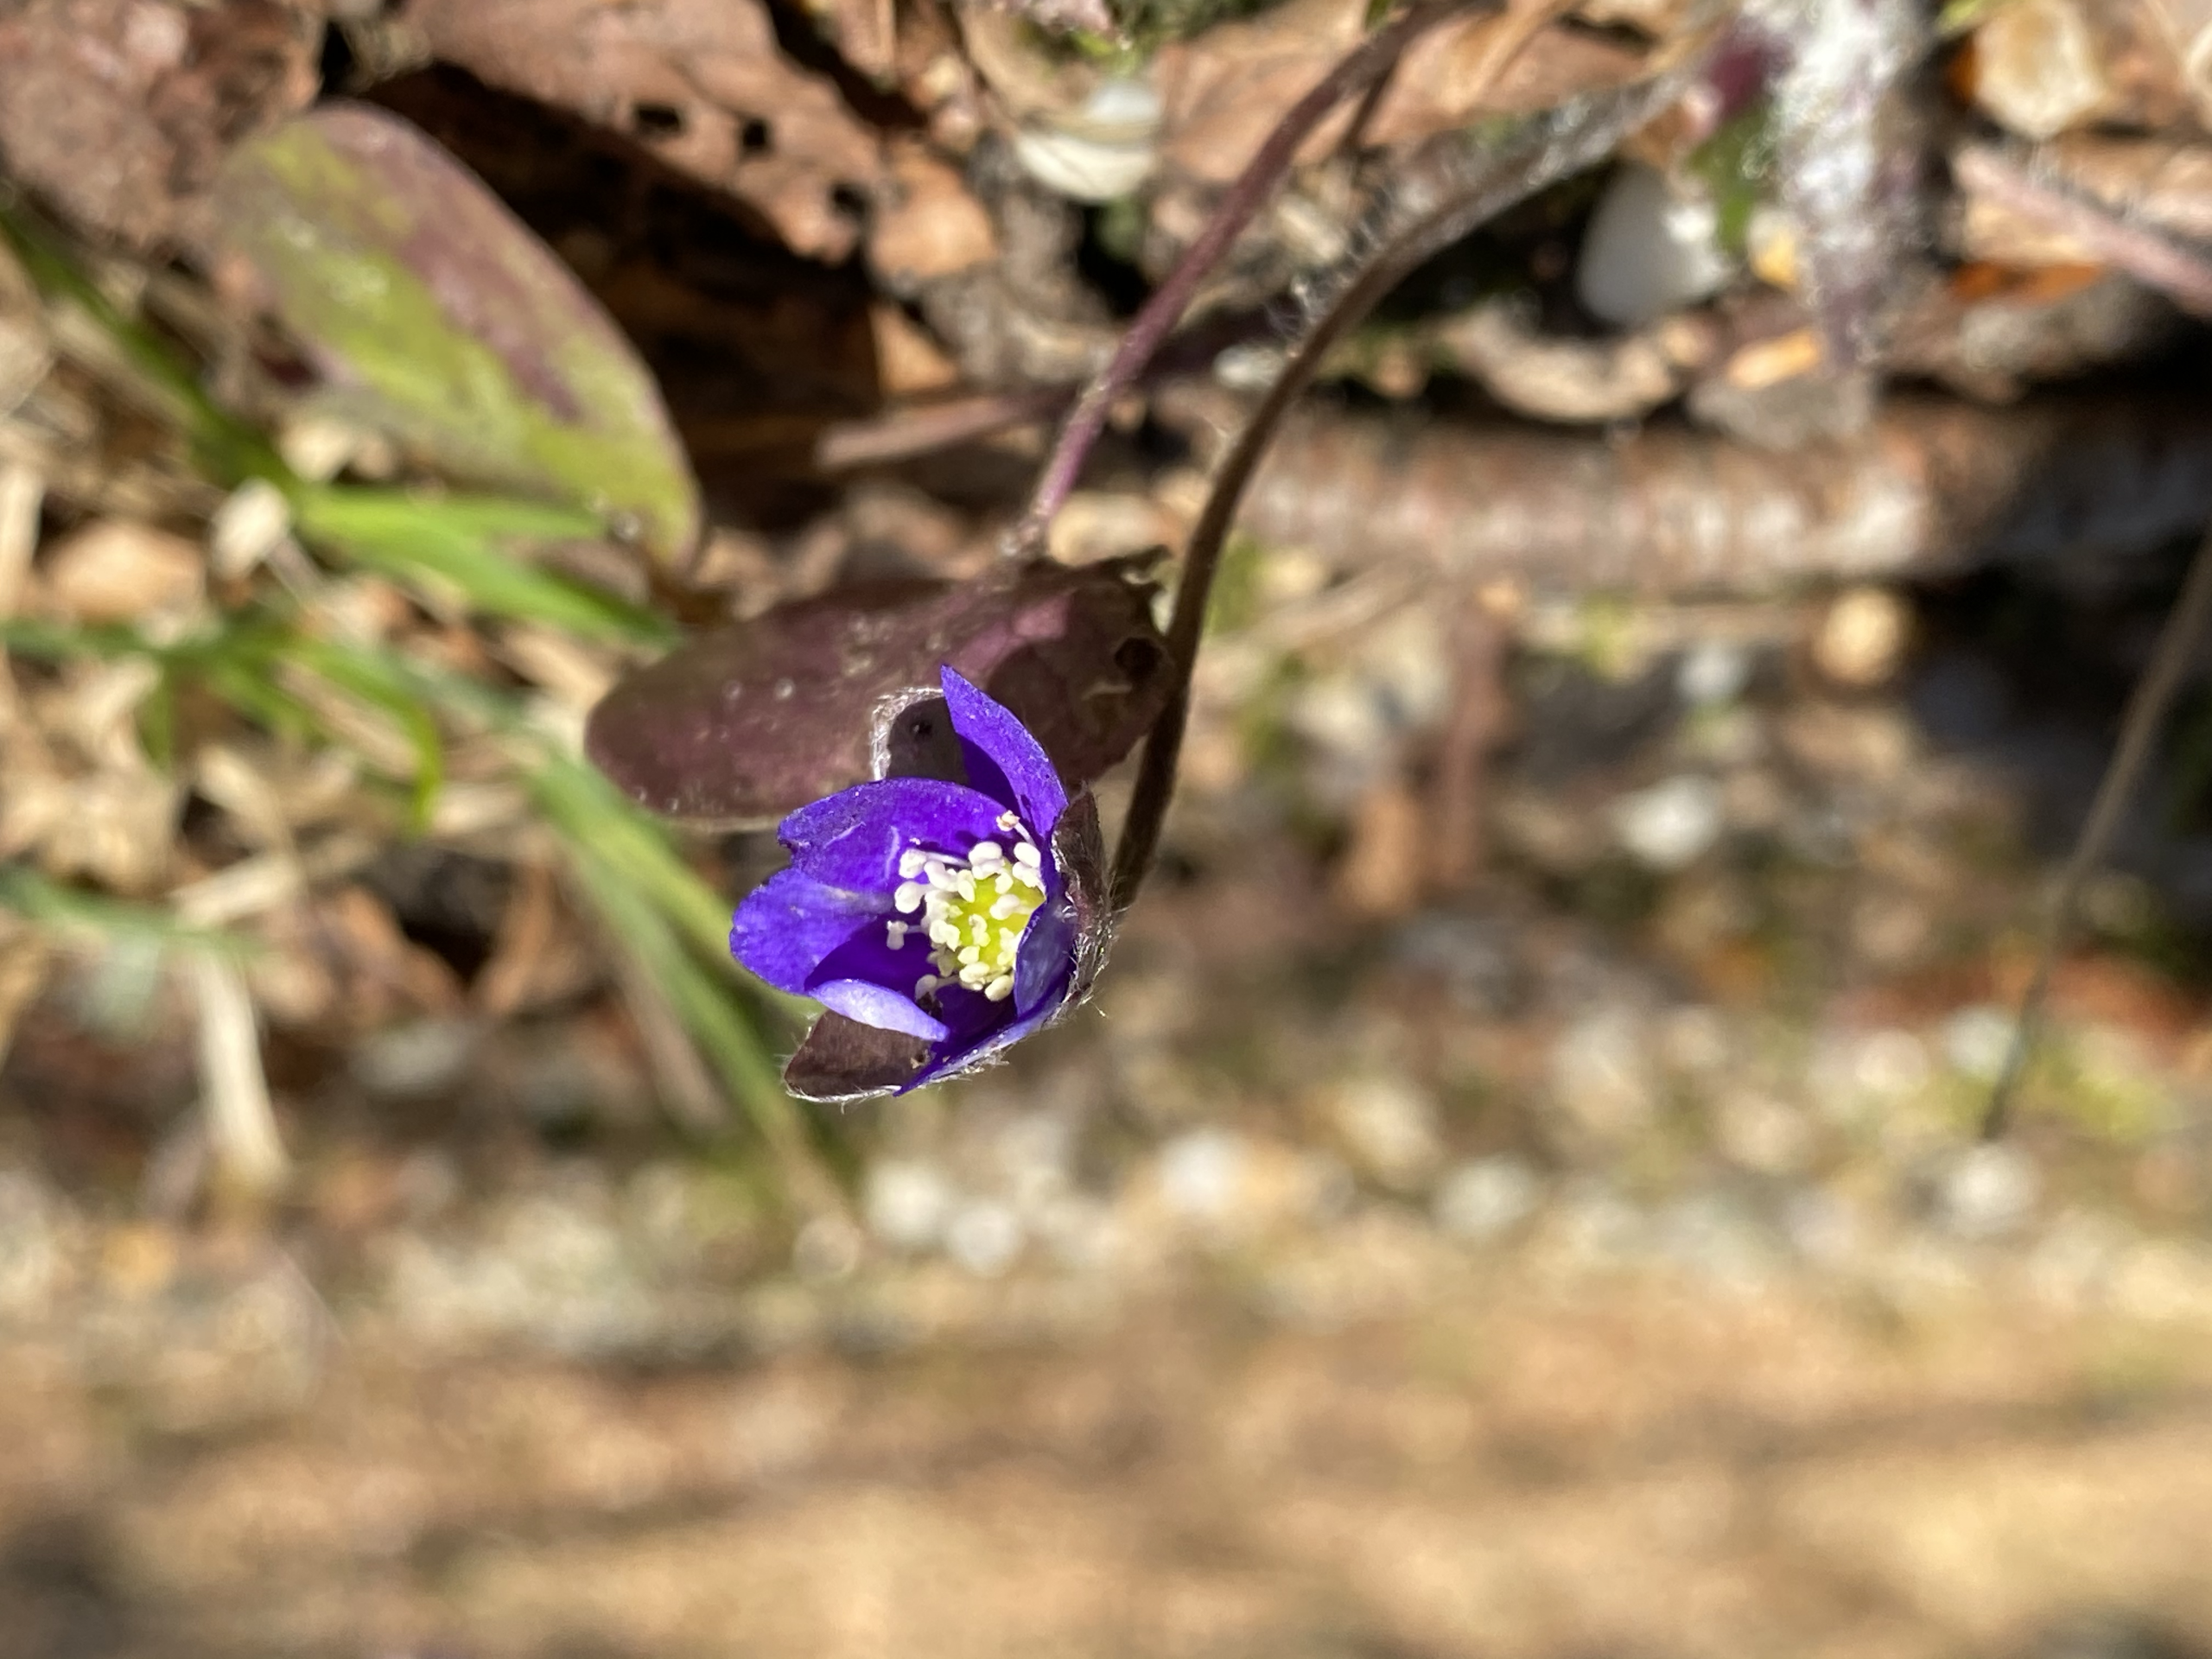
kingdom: Plantae
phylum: Tracheophyta
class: Magnoliopsida
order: Ranunculales
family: Ranunculaceae
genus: Hepatica
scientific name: Hepatica nobilis
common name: Blå anemone
